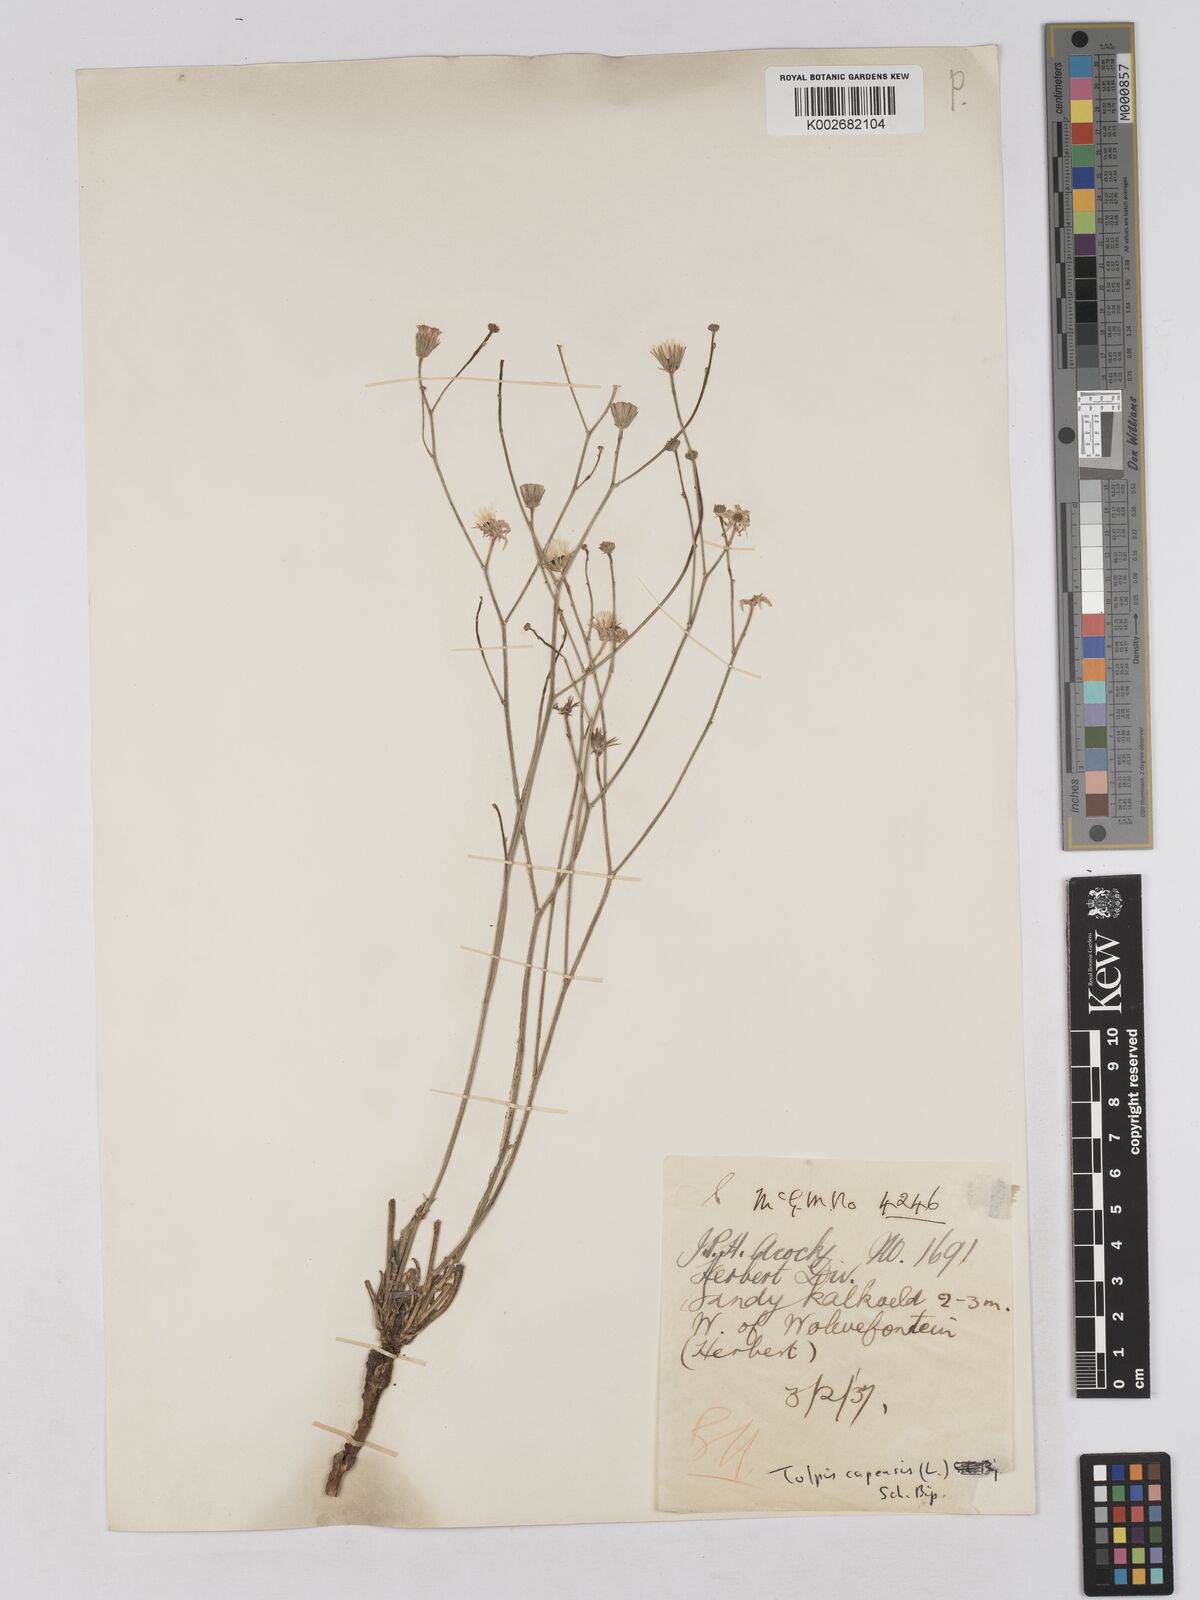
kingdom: Plantae
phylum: Tracheophyta
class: Magnoliopsida
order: Asterales
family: Asteraceae
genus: Tolpis
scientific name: Tolpis capensis
